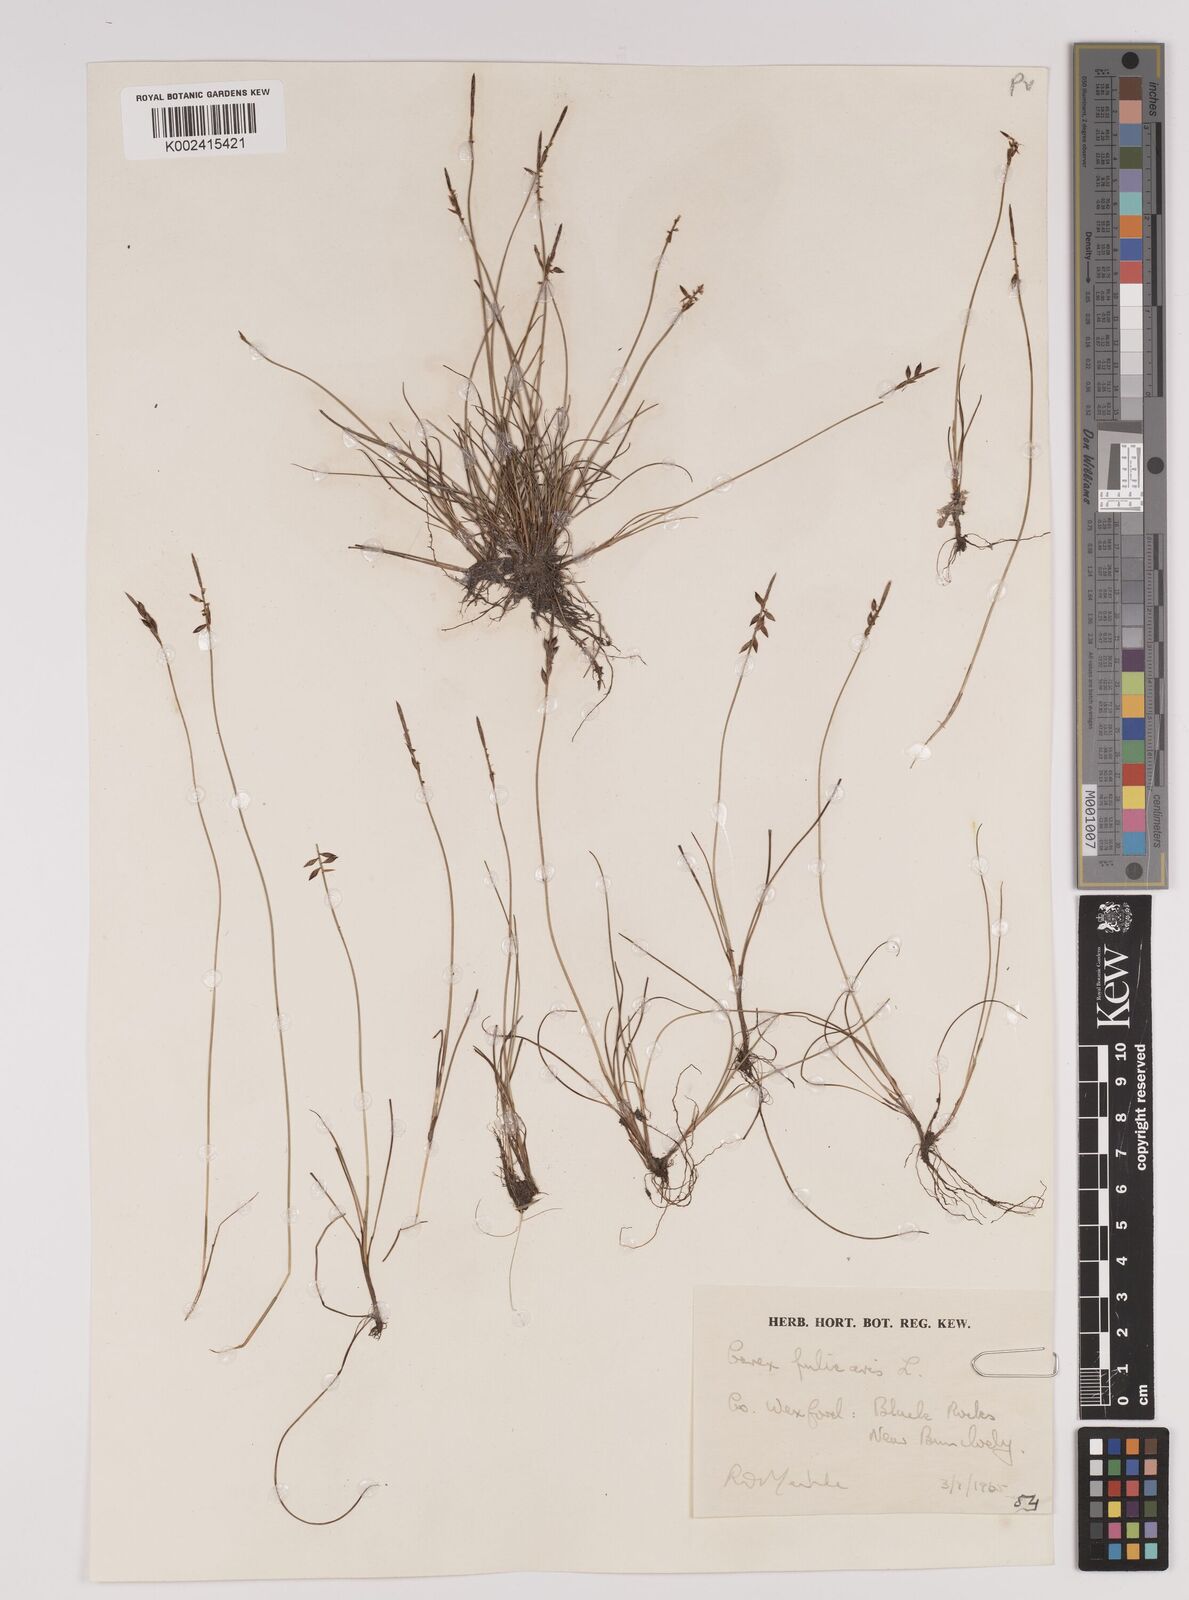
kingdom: Plantae
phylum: Tracheophyta
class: Liliopsida
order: Poales
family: Cyperaceae
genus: Carex
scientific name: Carex pulicaris
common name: Flea sedge
